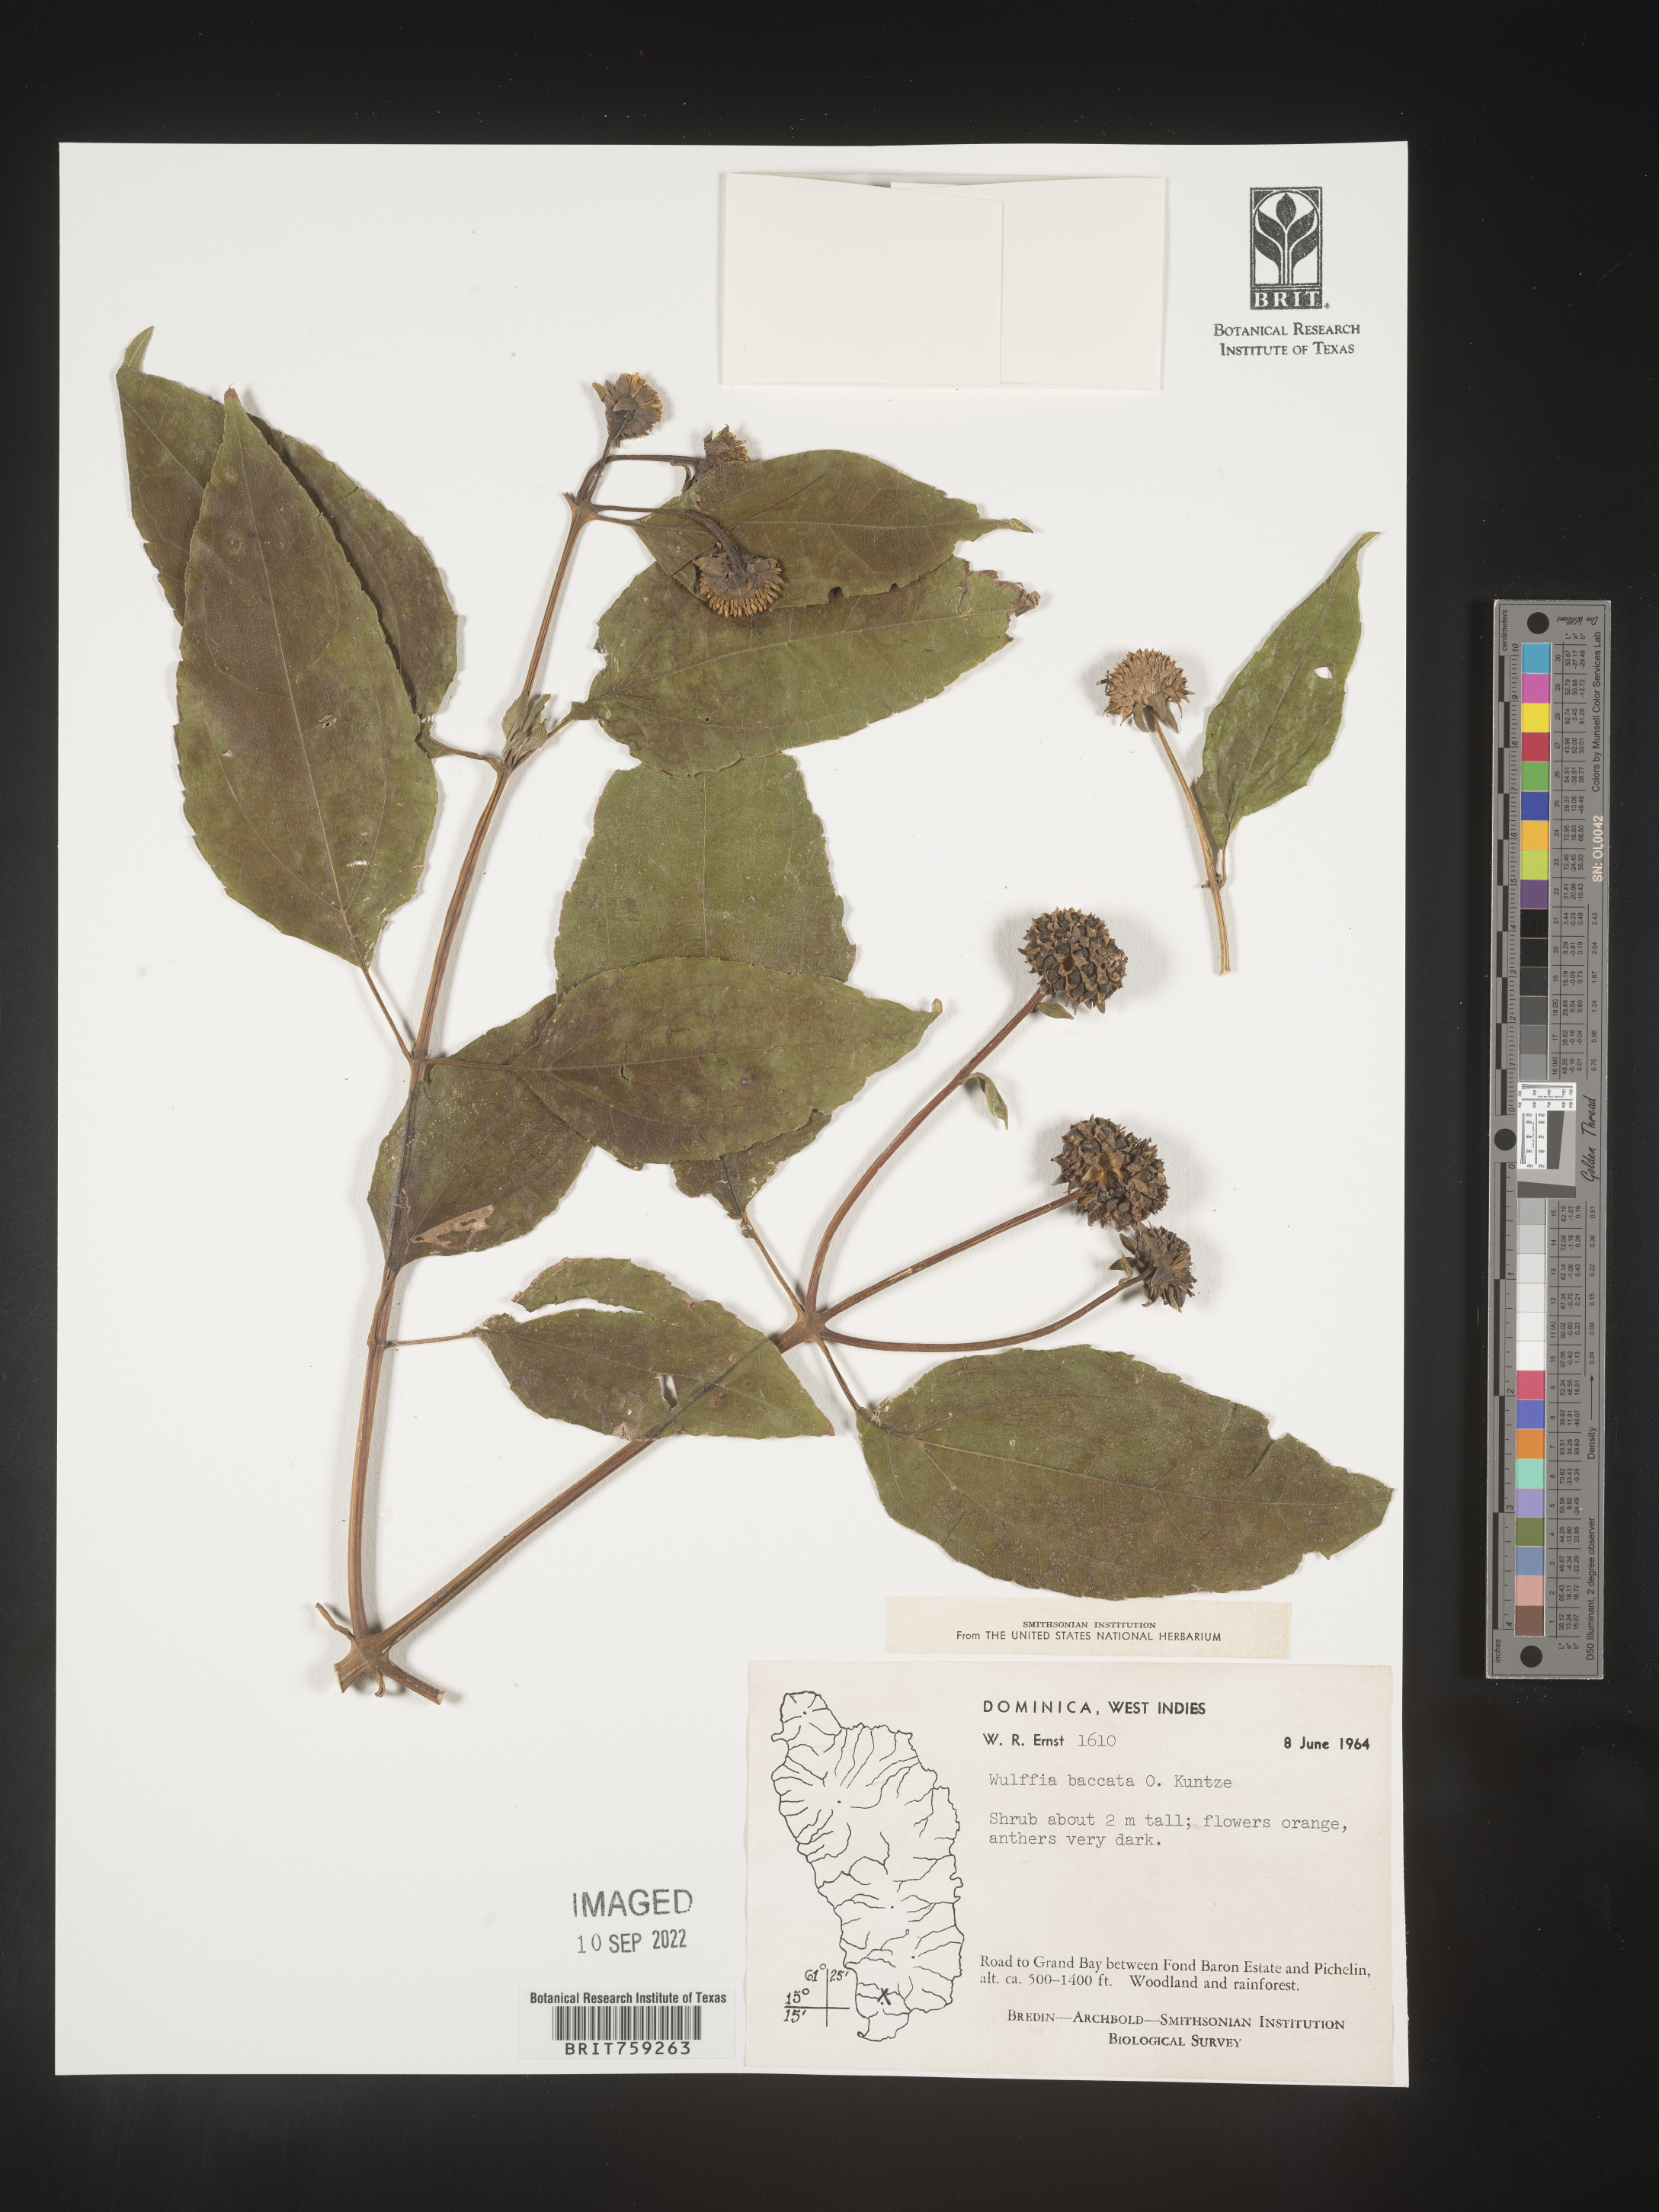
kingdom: Plantae
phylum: Tracheophyta
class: Magnoliopsida
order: Asterales
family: Asteraceae
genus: Tilesia
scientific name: Tilesia
